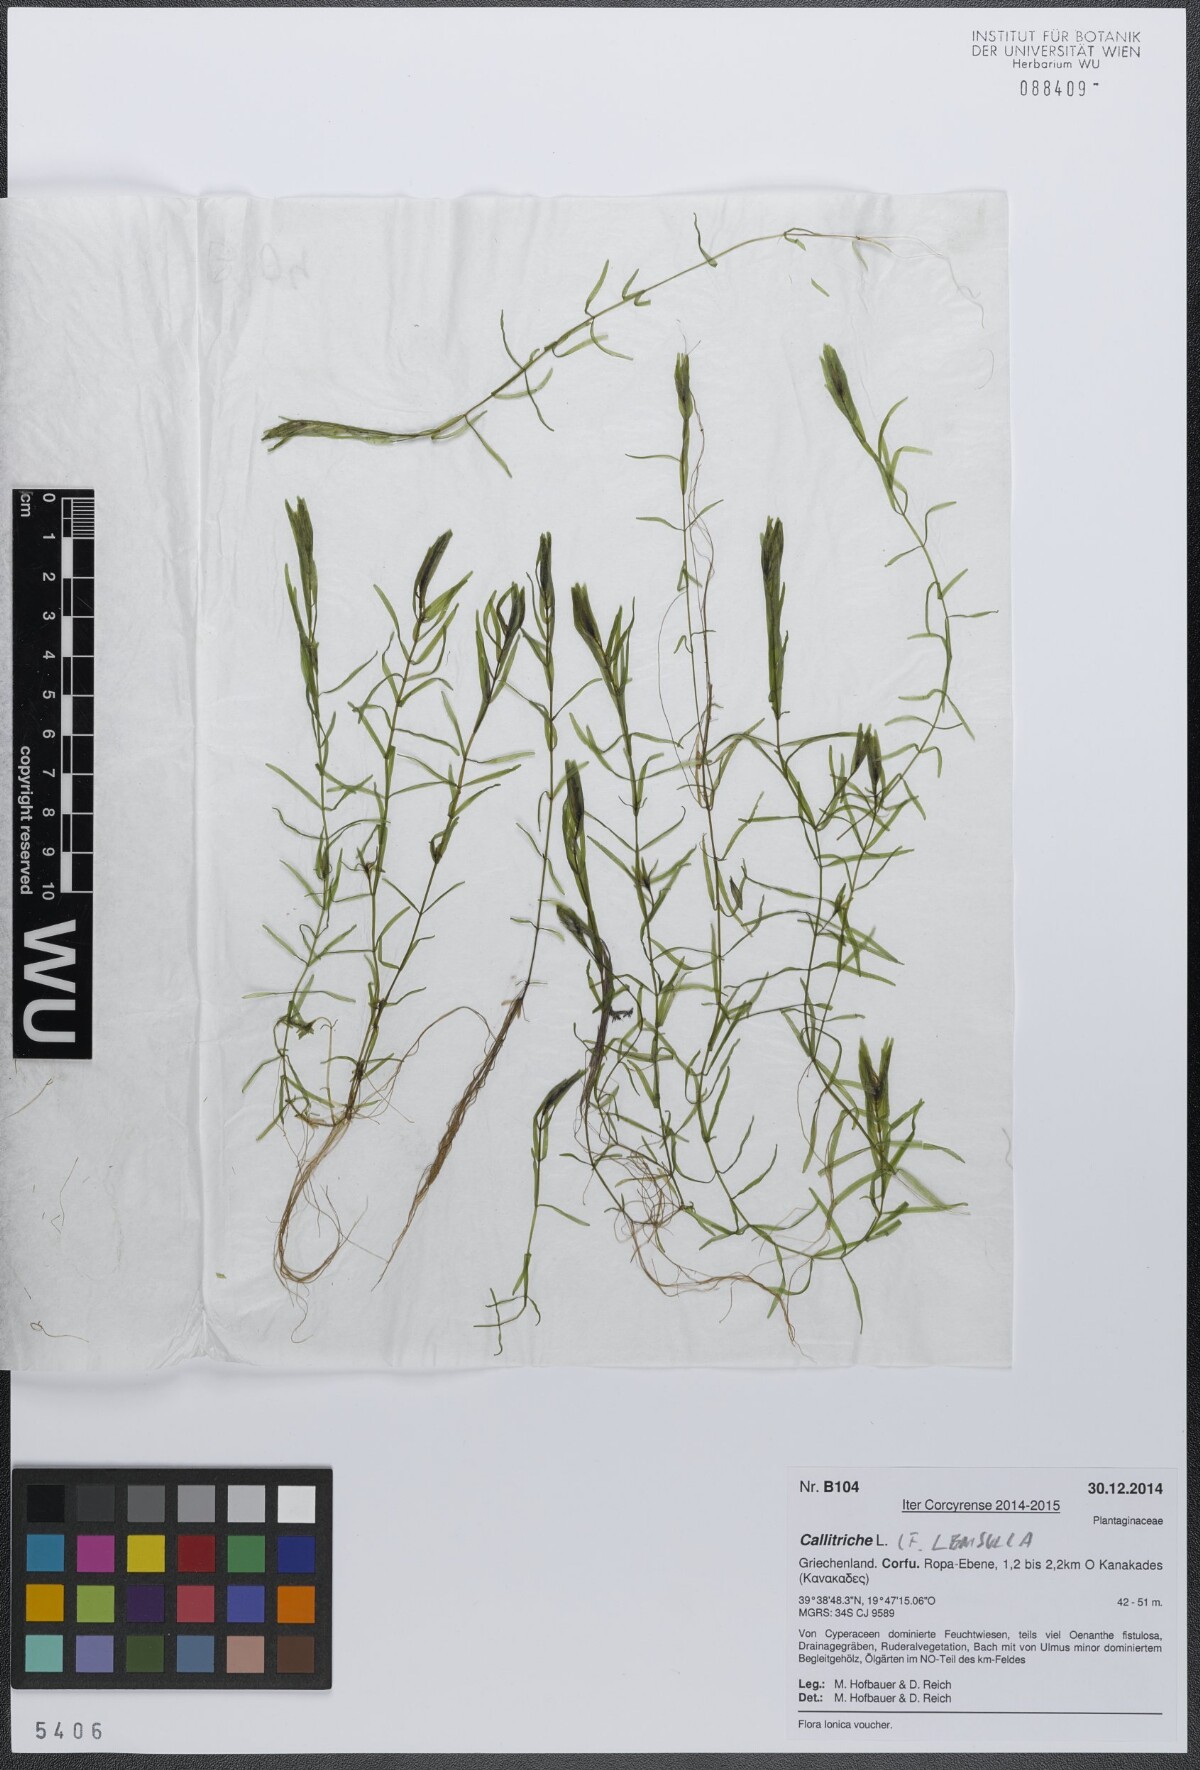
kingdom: Plantae
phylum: Tracheophyta
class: Magnoliopsida
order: Lamiales
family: Plantaginaceae
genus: Callitriche
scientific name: Callitriche lenisulca
